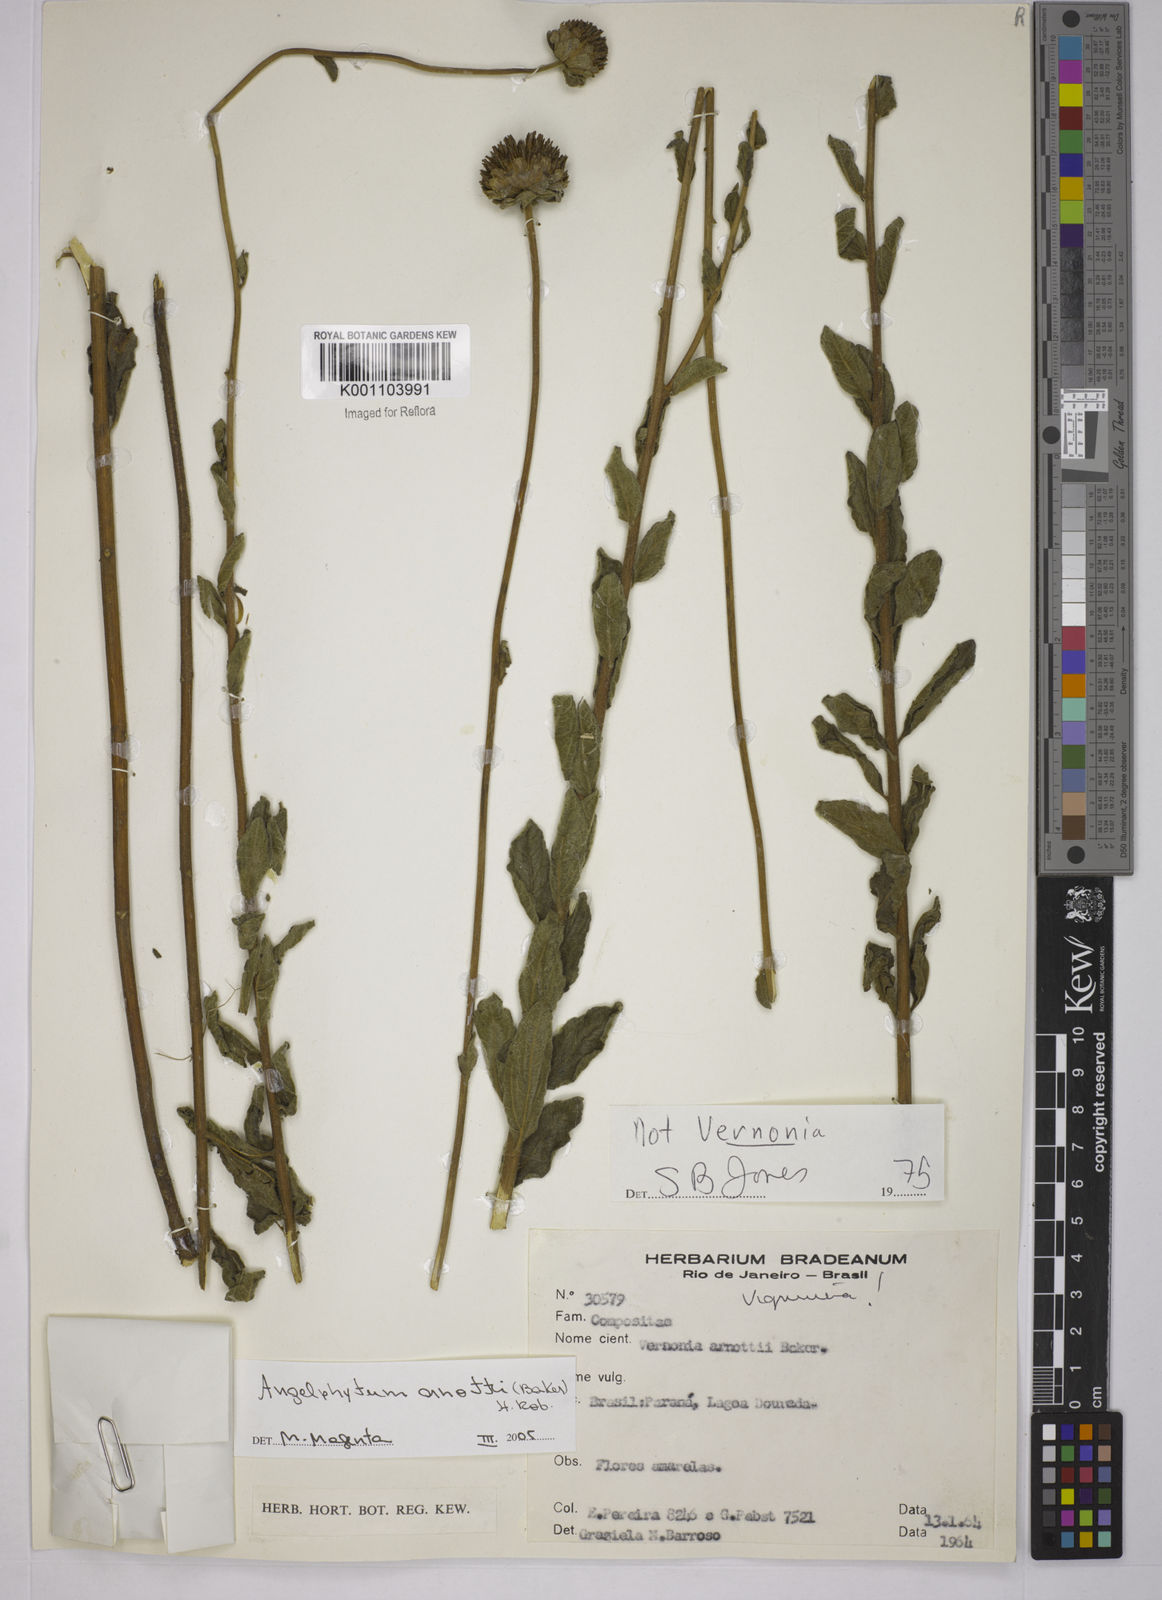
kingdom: Plantae
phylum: Tracheophyta
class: Magnoliopsida
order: Asterales
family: Asteraceae
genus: Dimerostemma
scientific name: Dimerostemma arnottii
